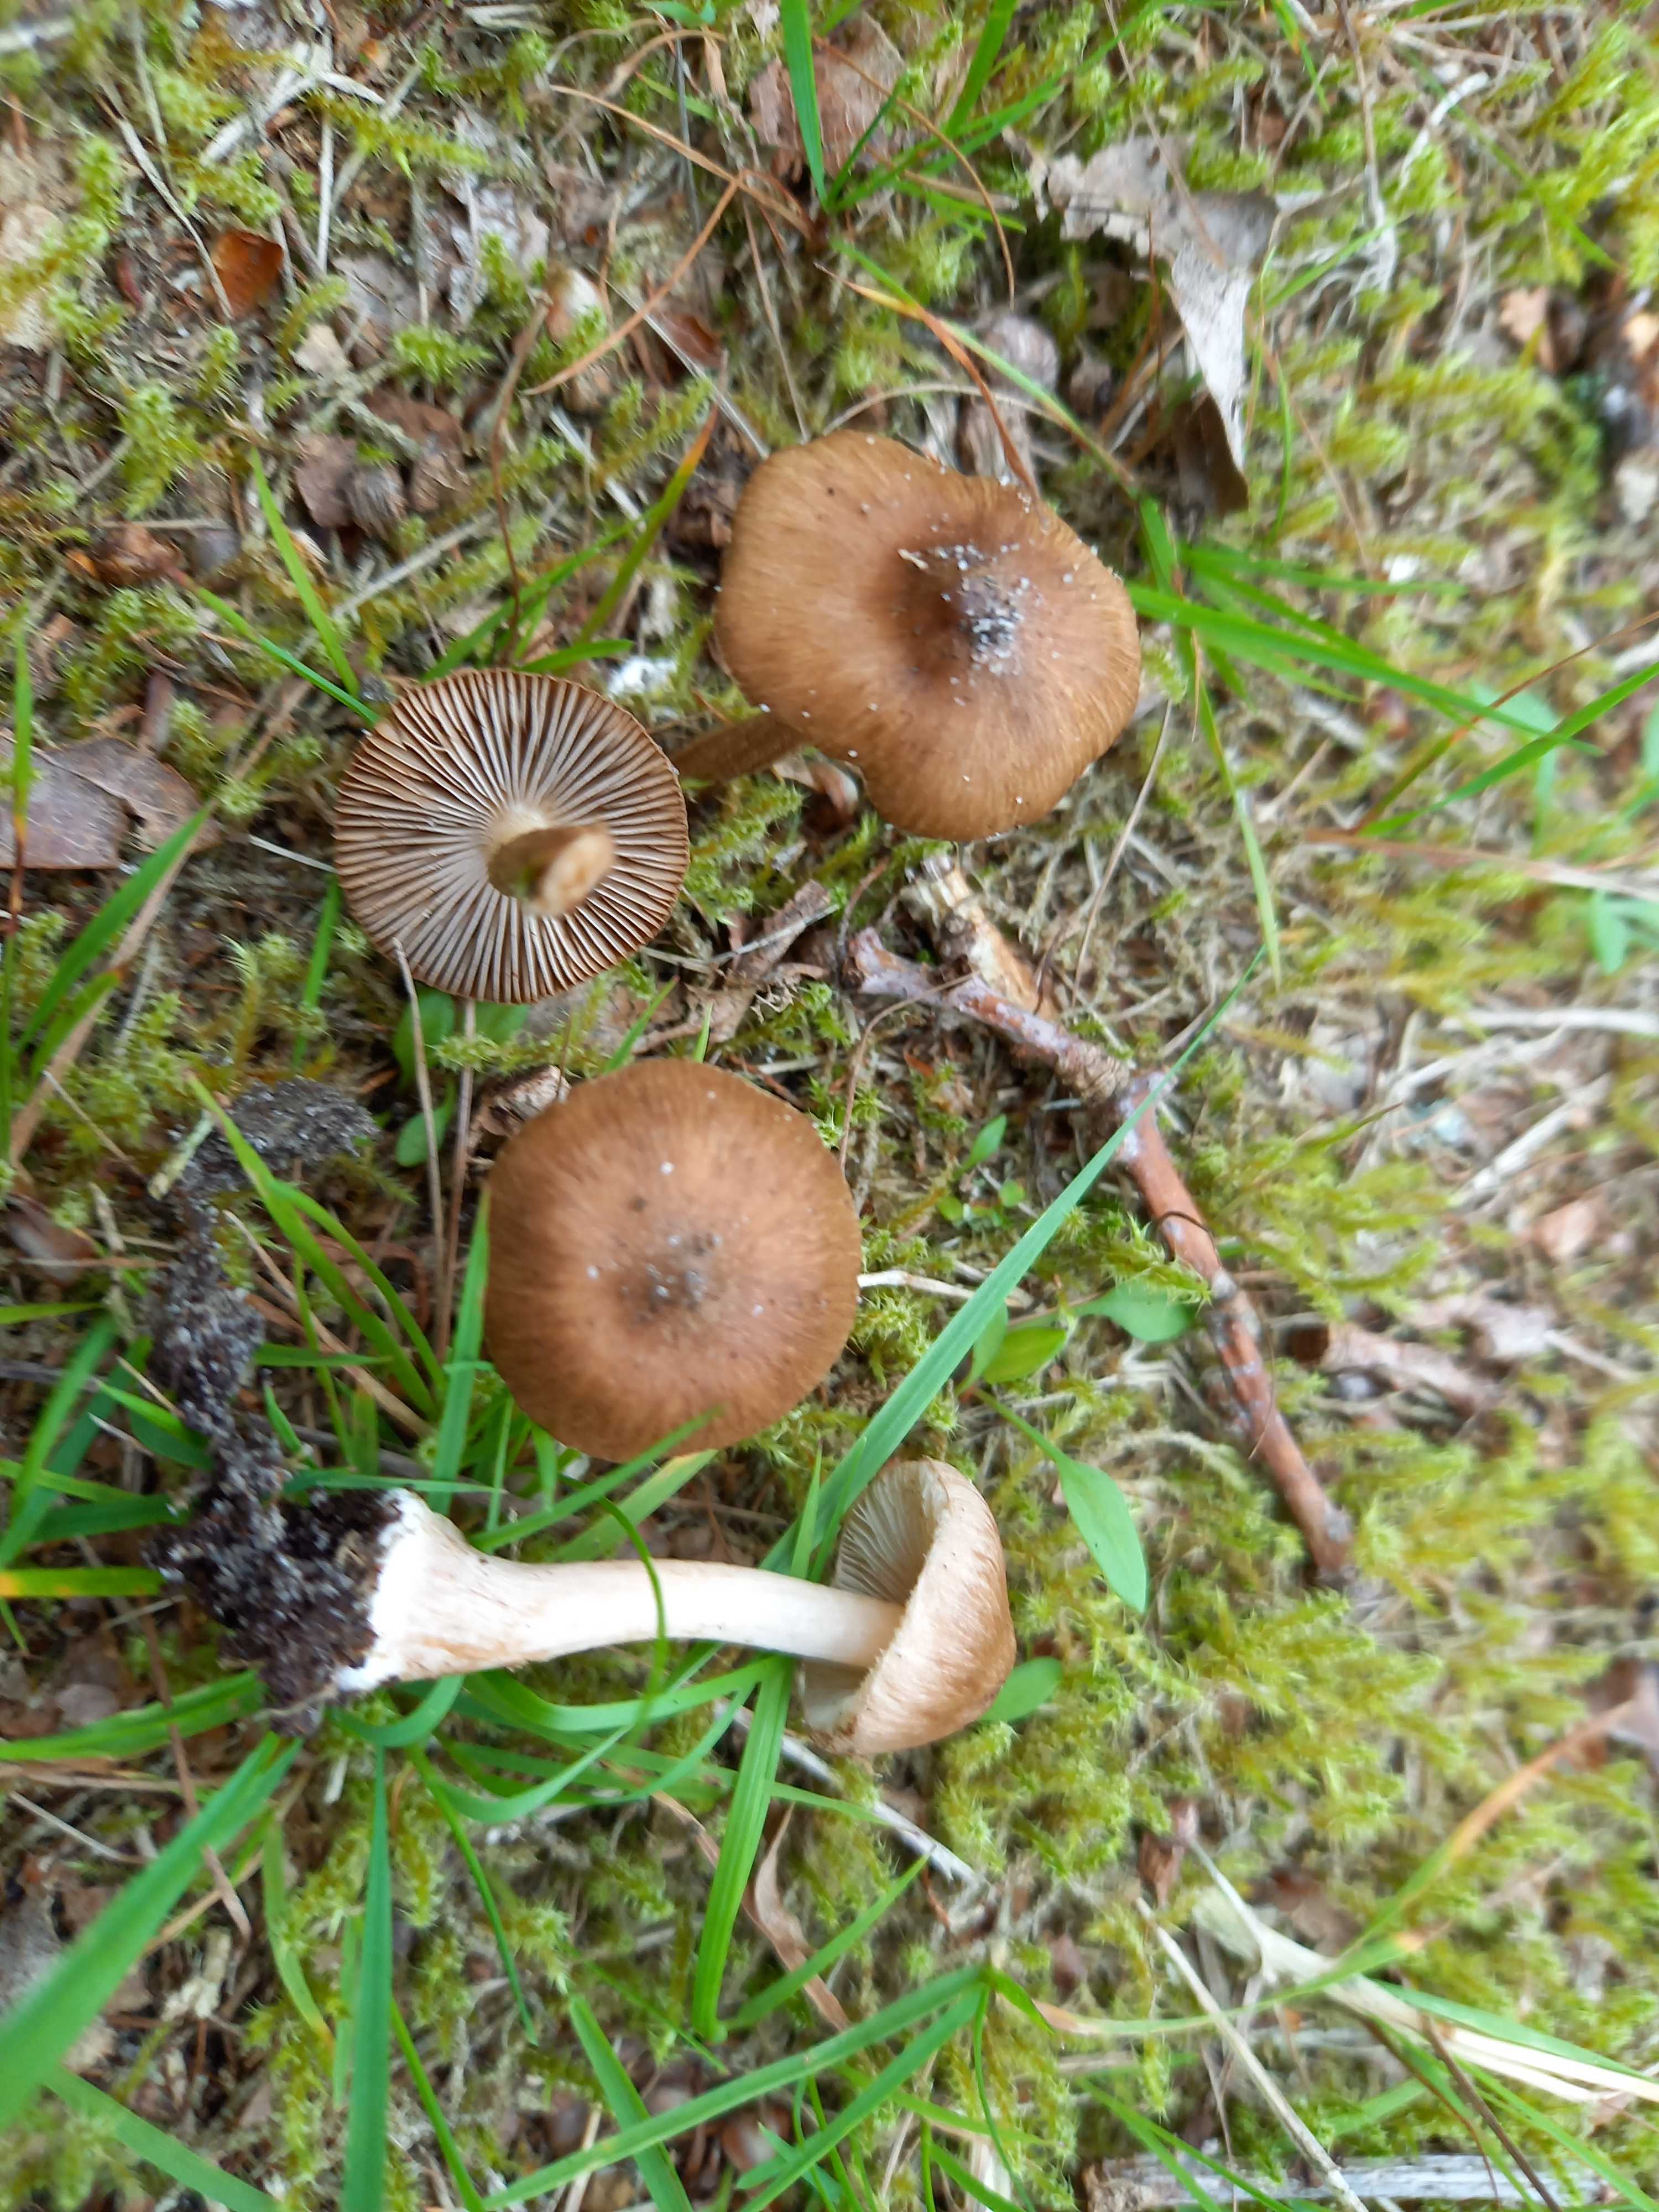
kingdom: Fungi
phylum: Basidiomycota
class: Agaricomycetes
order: Agaricales
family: Inocybaceae
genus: Inocybe
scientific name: Inocybe
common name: trævlhat
